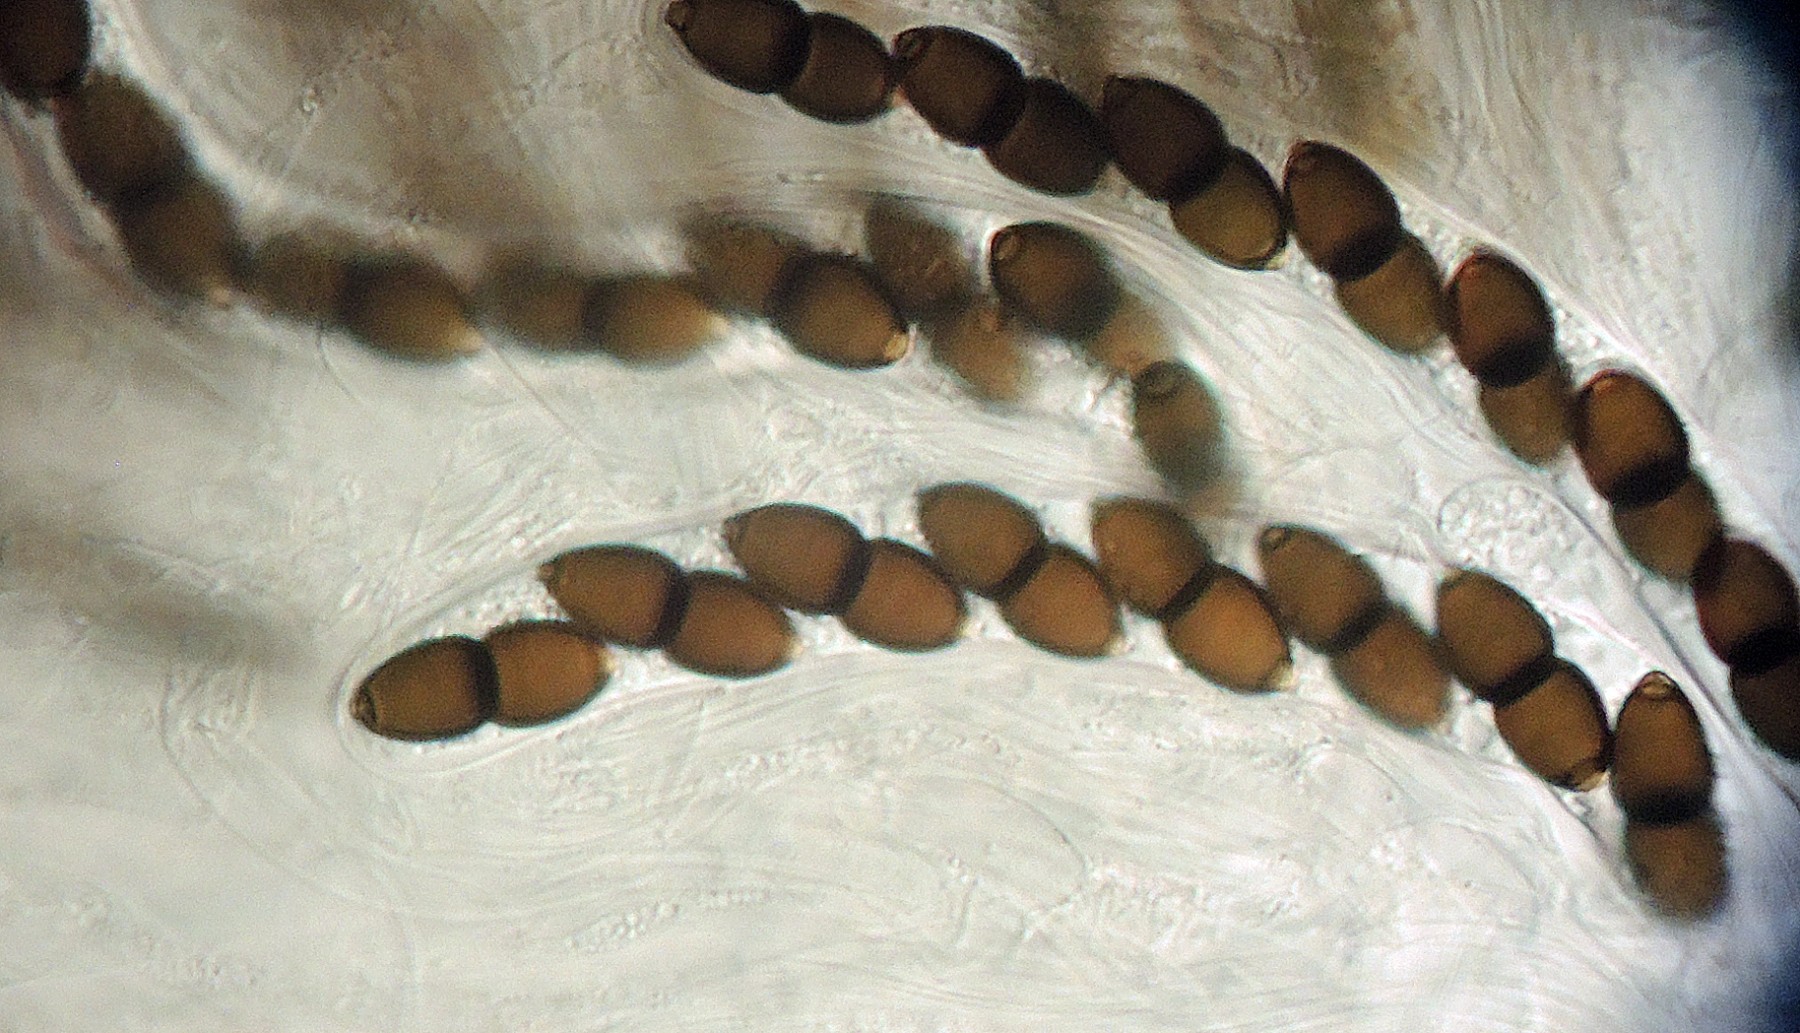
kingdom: Fungi
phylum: Ascomycota
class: Dothideomycetes
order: Phaeotrichales
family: Phaeotrichaceae
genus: Trichodelitschia
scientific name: Trichodelitschia bisporula
